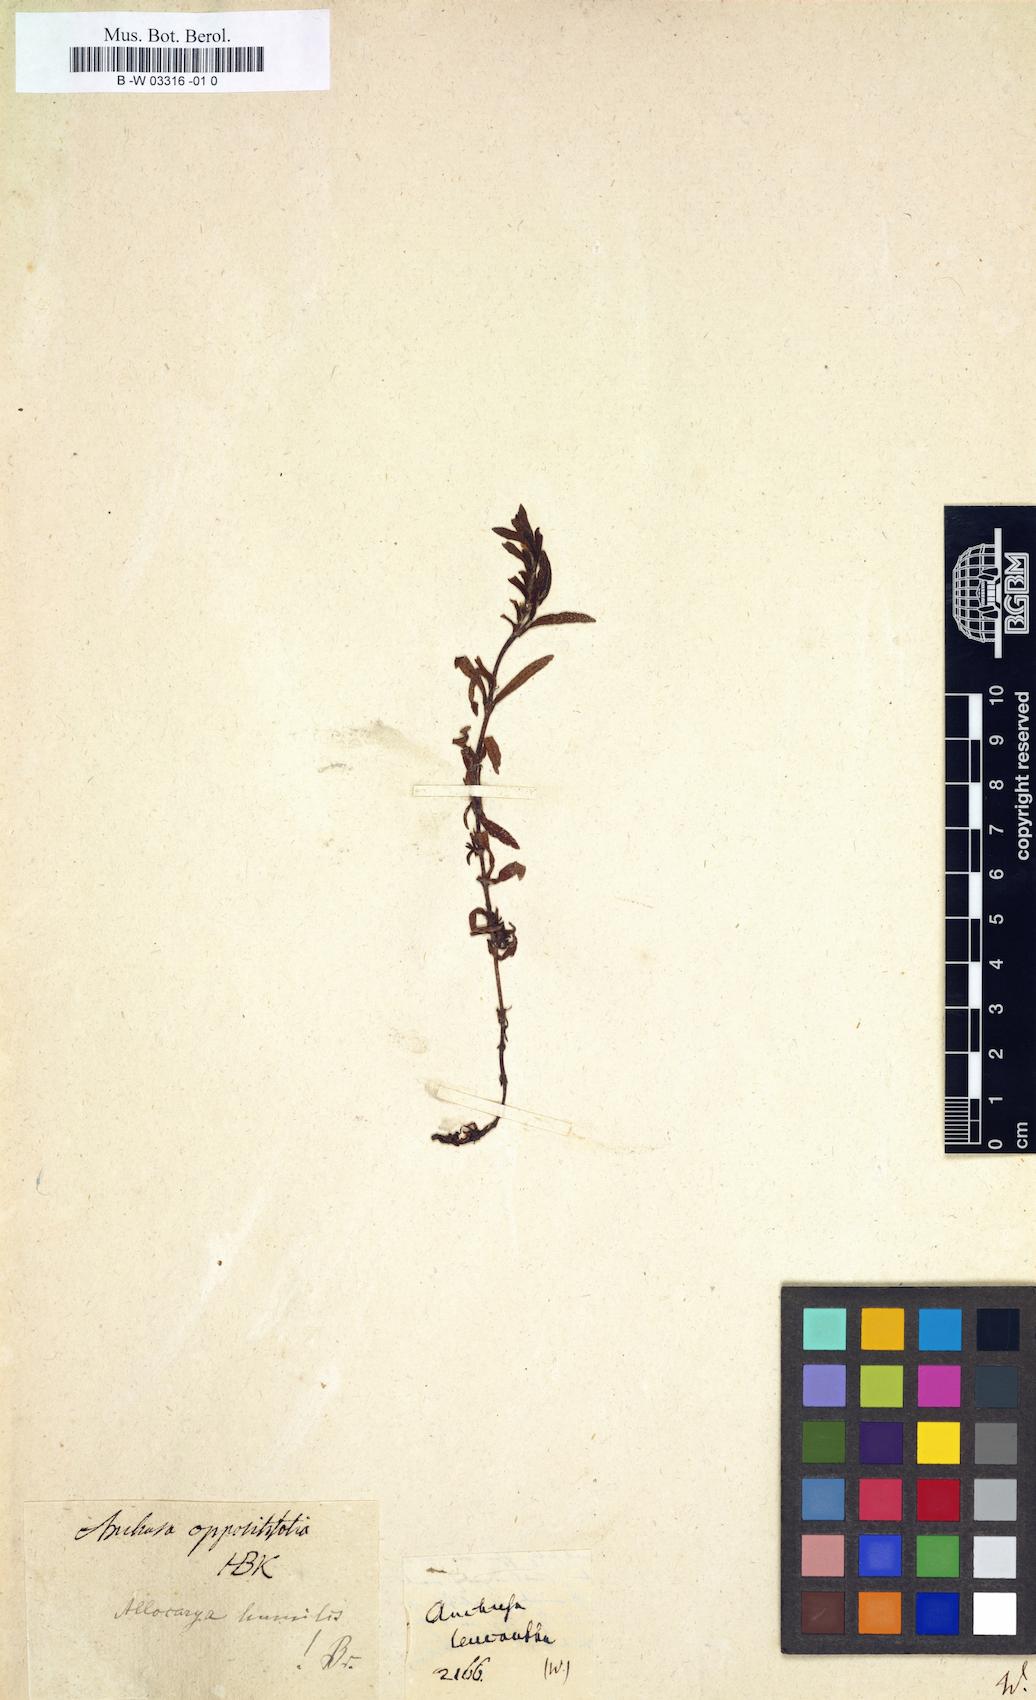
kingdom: Plantae
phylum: Tracheophyta
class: Magnoliopsida
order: Boraginales
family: Boraginaceae
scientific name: Boraginaceae
